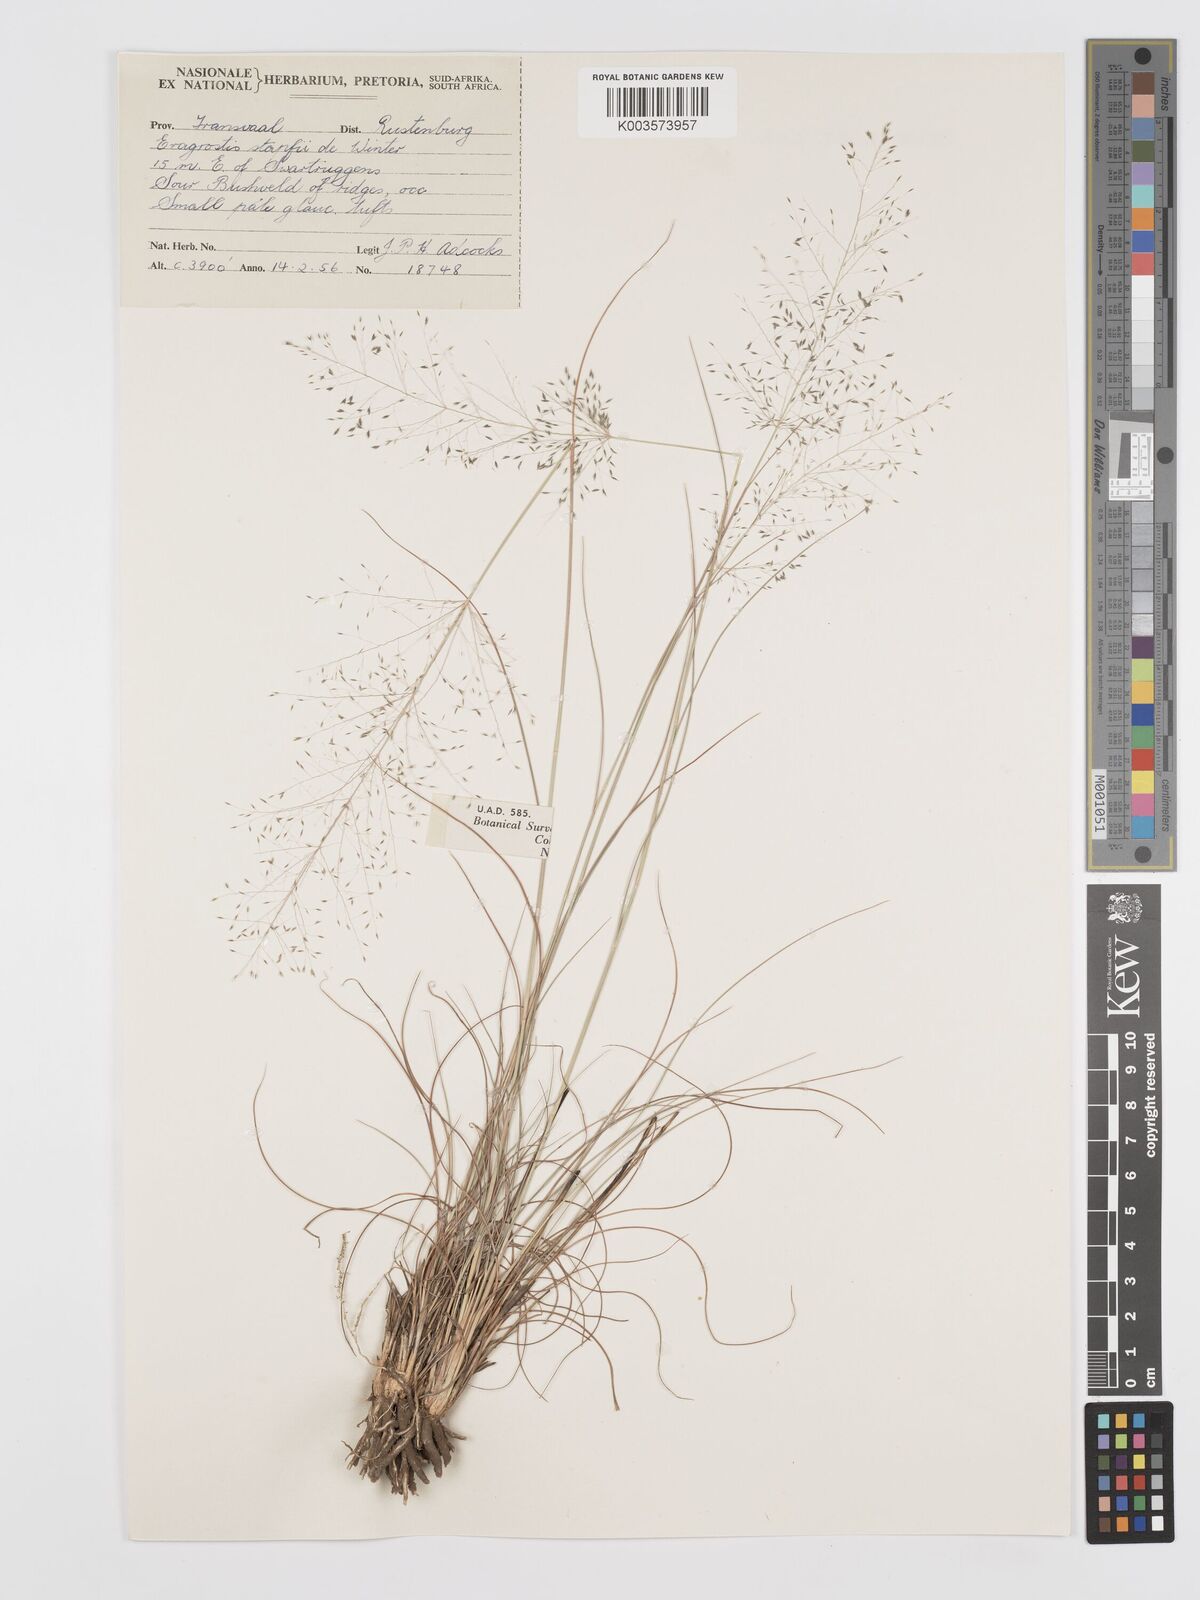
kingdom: Plantae
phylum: Tracheophyta
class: Liliopsida
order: Poales
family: Poaceae
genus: Eragrostis
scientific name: Eragrostis stapfii
